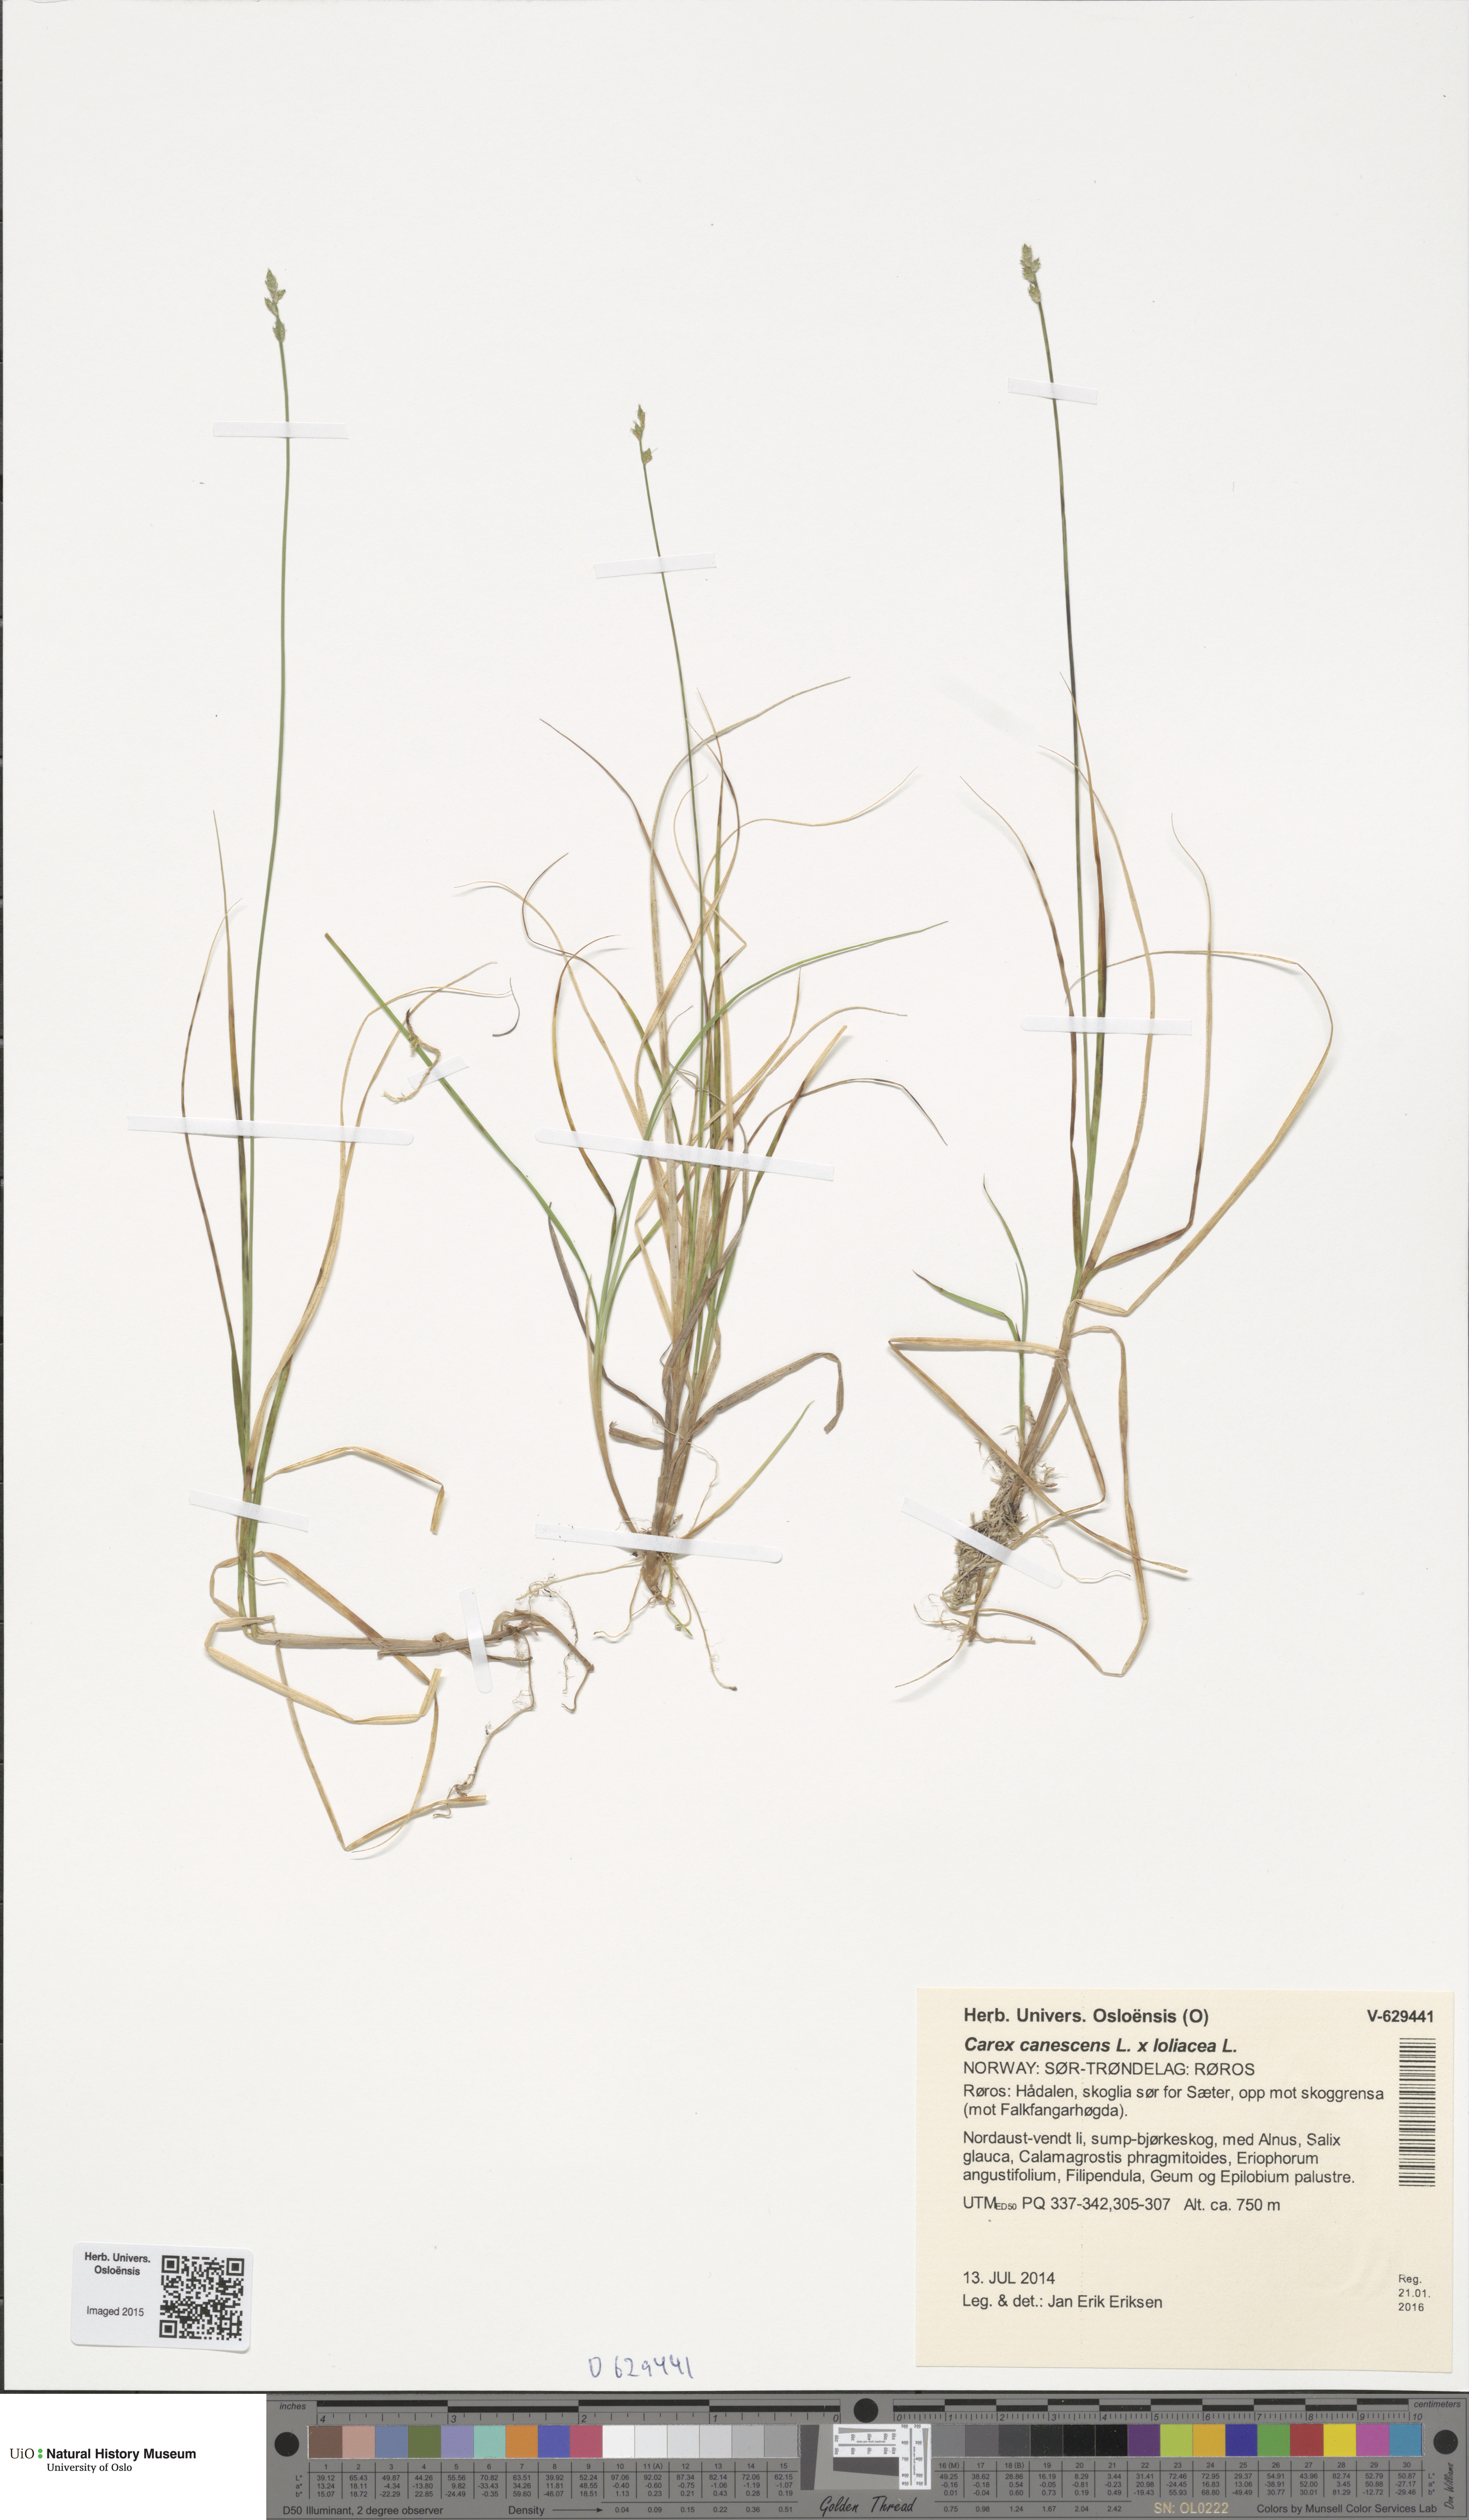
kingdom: Plantae
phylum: Tracheophyta
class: Liliopsida
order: Poales
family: Cyperaceae
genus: Carex
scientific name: Carex
